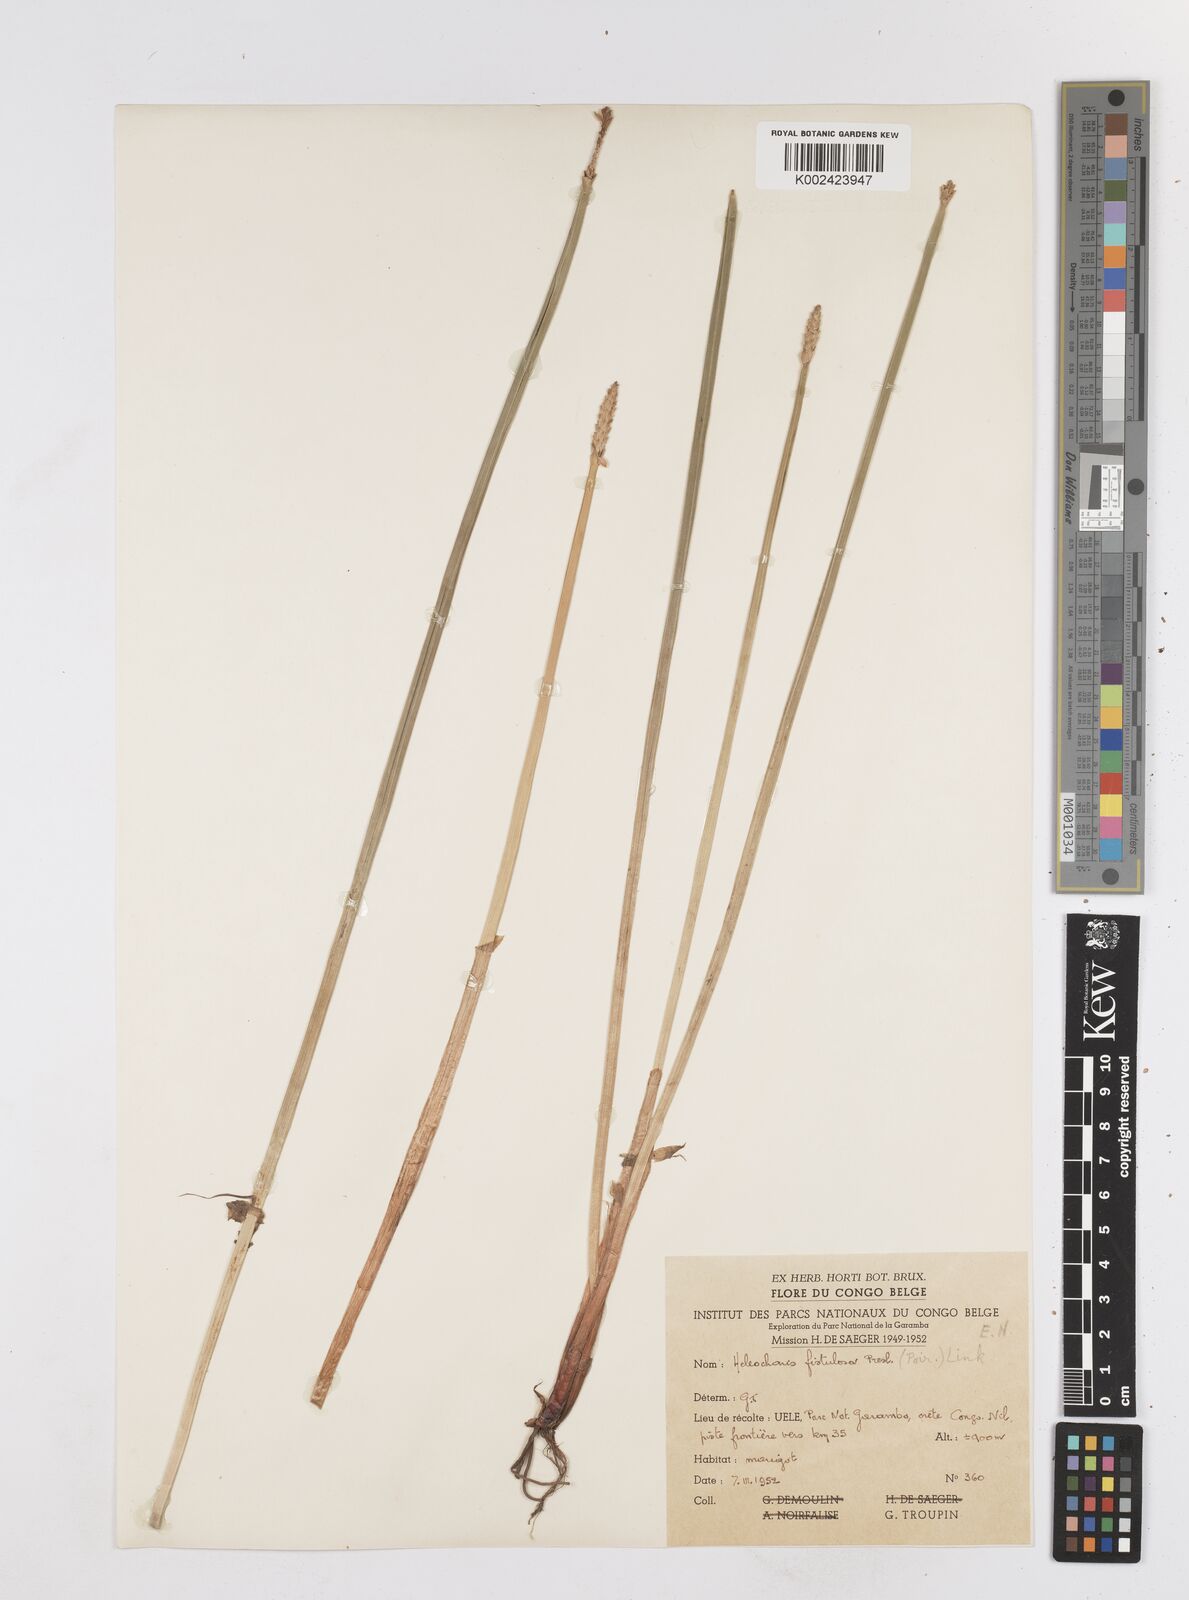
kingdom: Plantae
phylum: Tracheophyta
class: Liliopsida
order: Poales
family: Cyperaceae
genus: Eleocharis
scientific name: Eleocharis acutangula
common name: Acute spikerush
